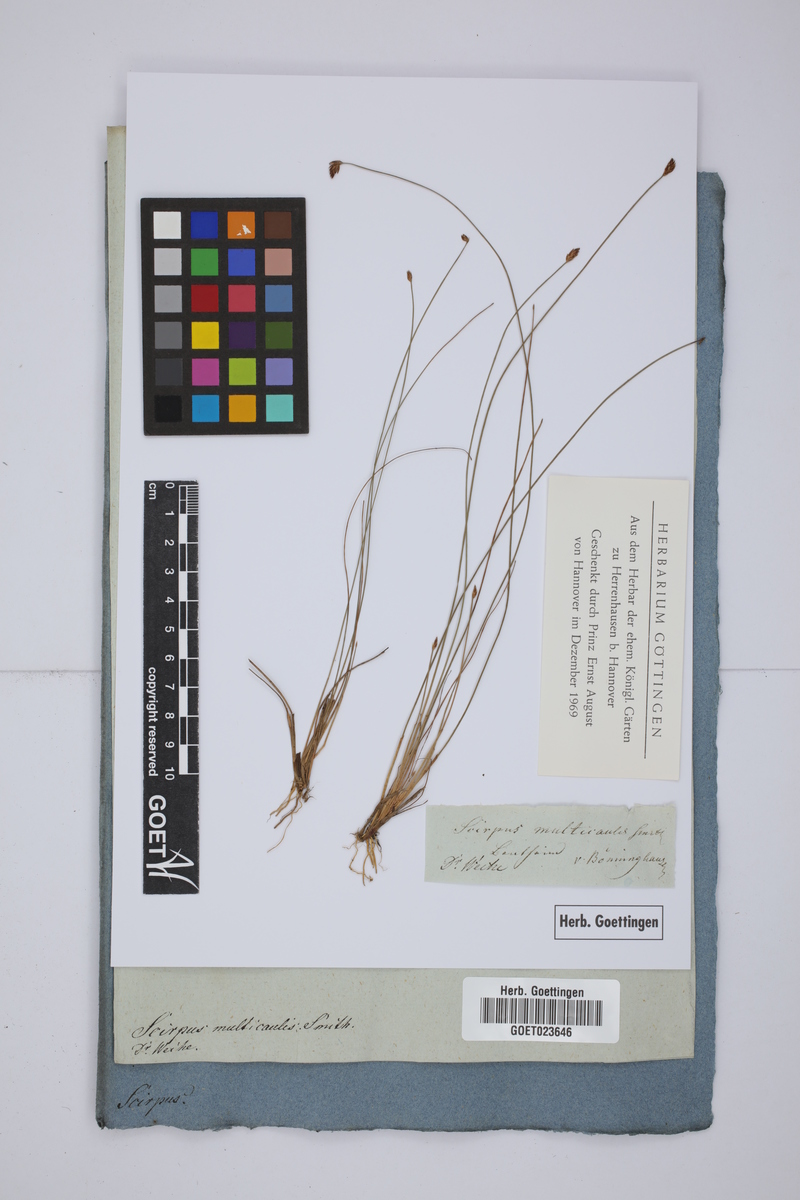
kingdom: Plantae
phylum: Tracheophyta
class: Liliopsida
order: Poales
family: Cyperaceae
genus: Eleocharis
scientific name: Eleocharis multicaulis
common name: Many-stalked spike-rush
